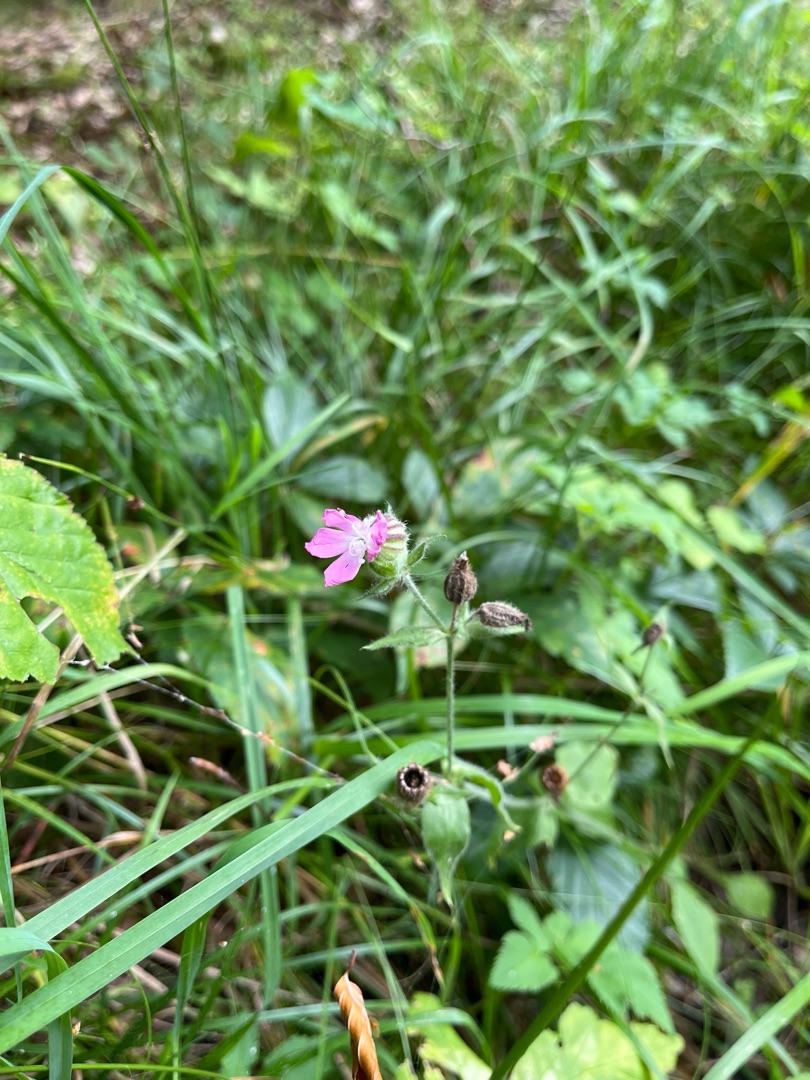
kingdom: Plantae
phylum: Tracheophyta
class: Magnoliopsida
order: Caryophyllales
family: Caryophyllaceae
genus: Silene
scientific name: Silene dioica
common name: Dagpragtstjerne
